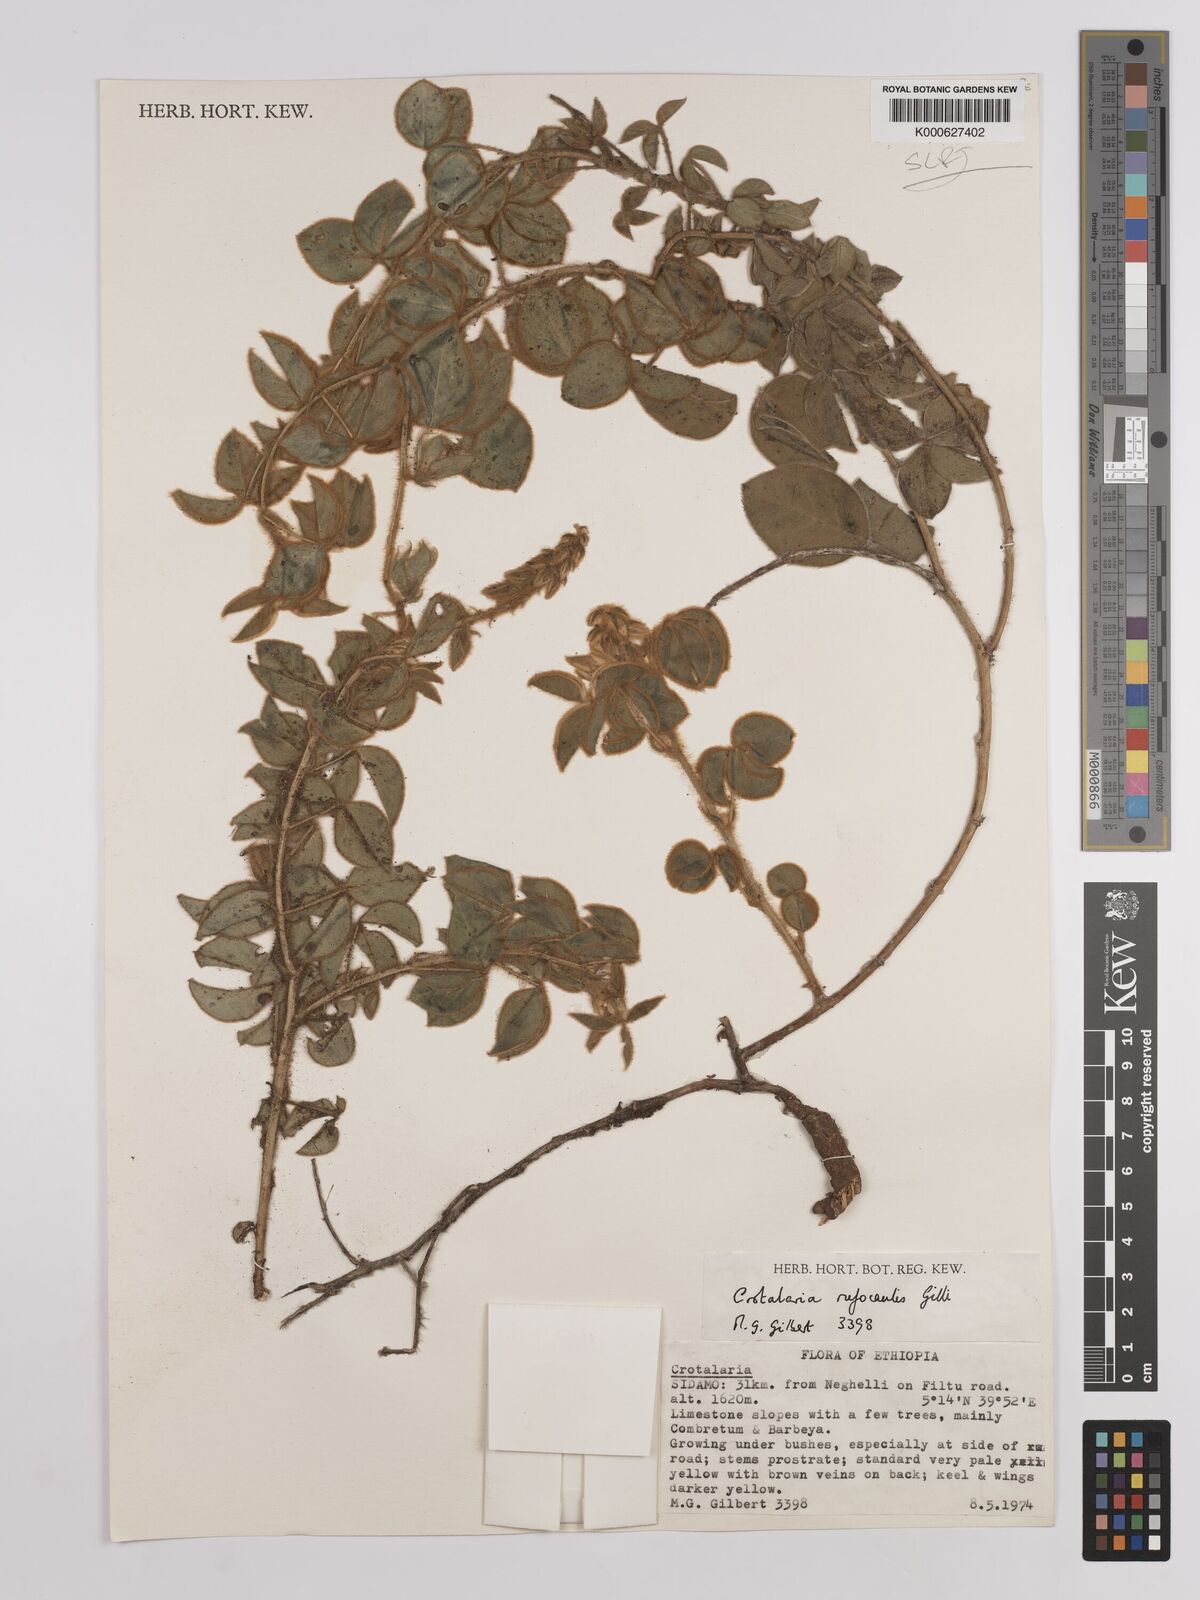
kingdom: Plantae
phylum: Tracheophyta
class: Magnoliopsida
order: Fabales
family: Fabaceae
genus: Crotalaria
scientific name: Crotalaria rufocaulis
